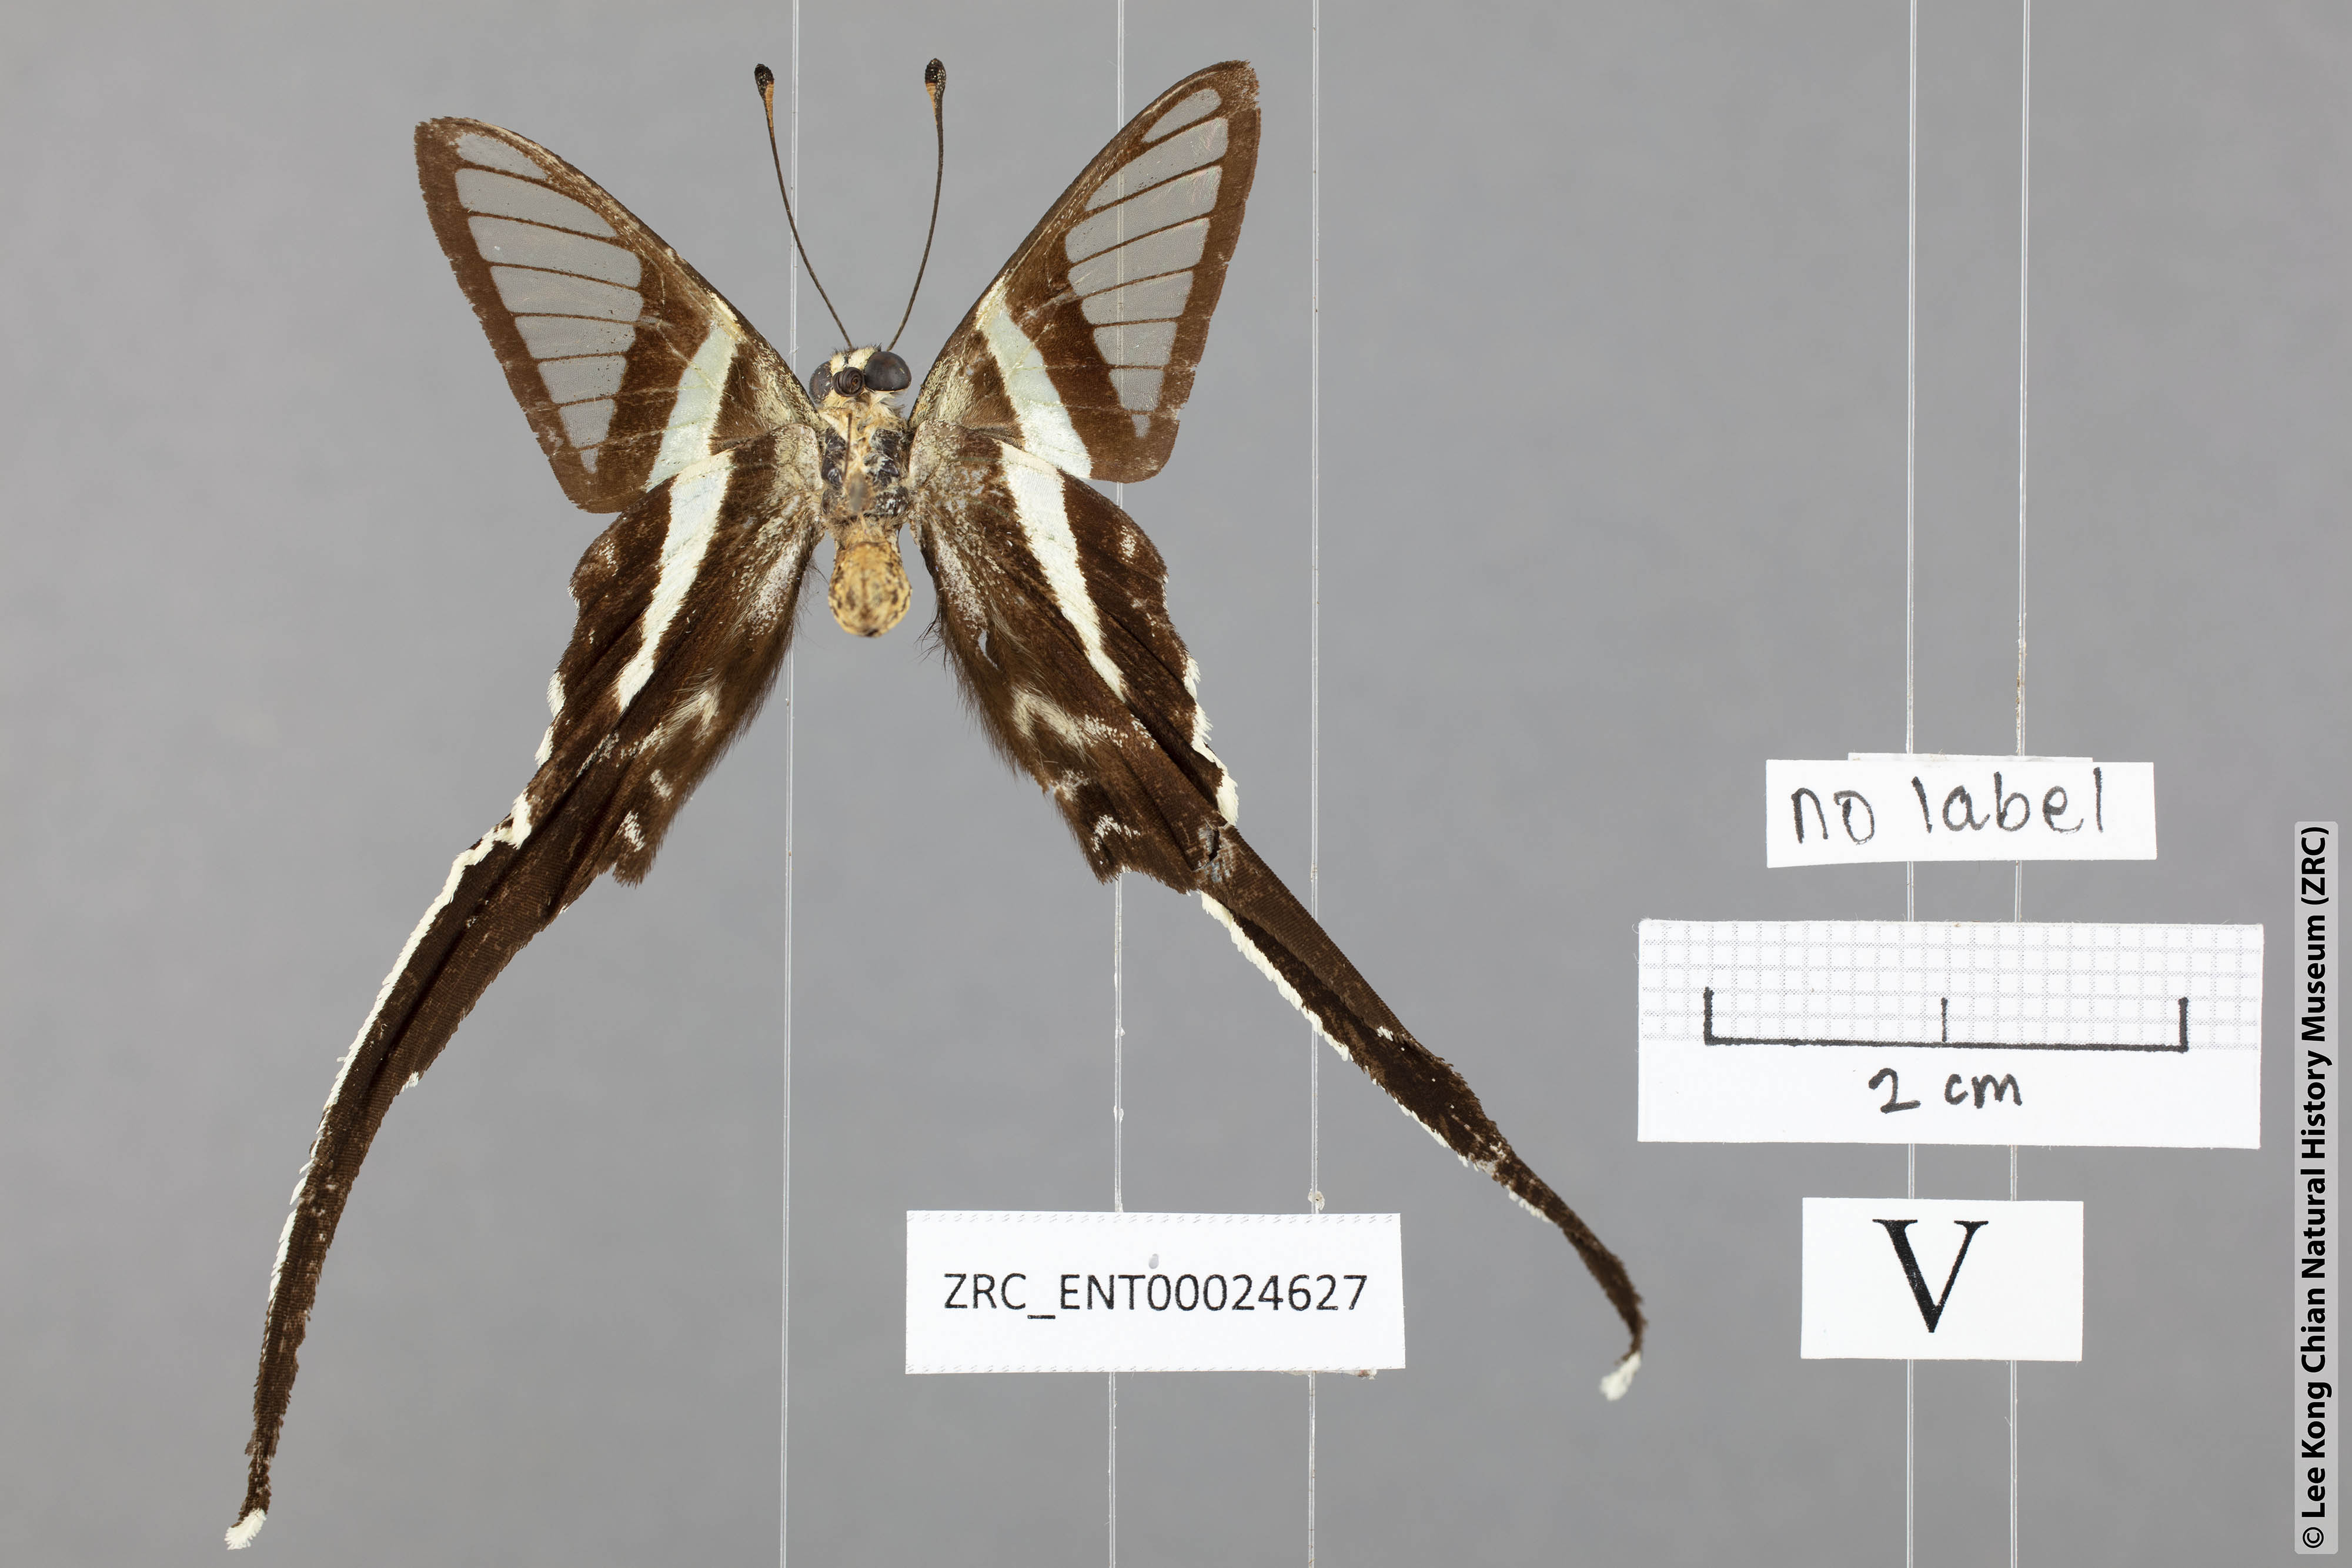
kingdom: Animalia
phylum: Arthropoda
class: Insecta
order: Lepidoptera
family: Papilionidae
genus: Lamproptera
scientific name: Lamproptera meges
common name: Green dragontail
